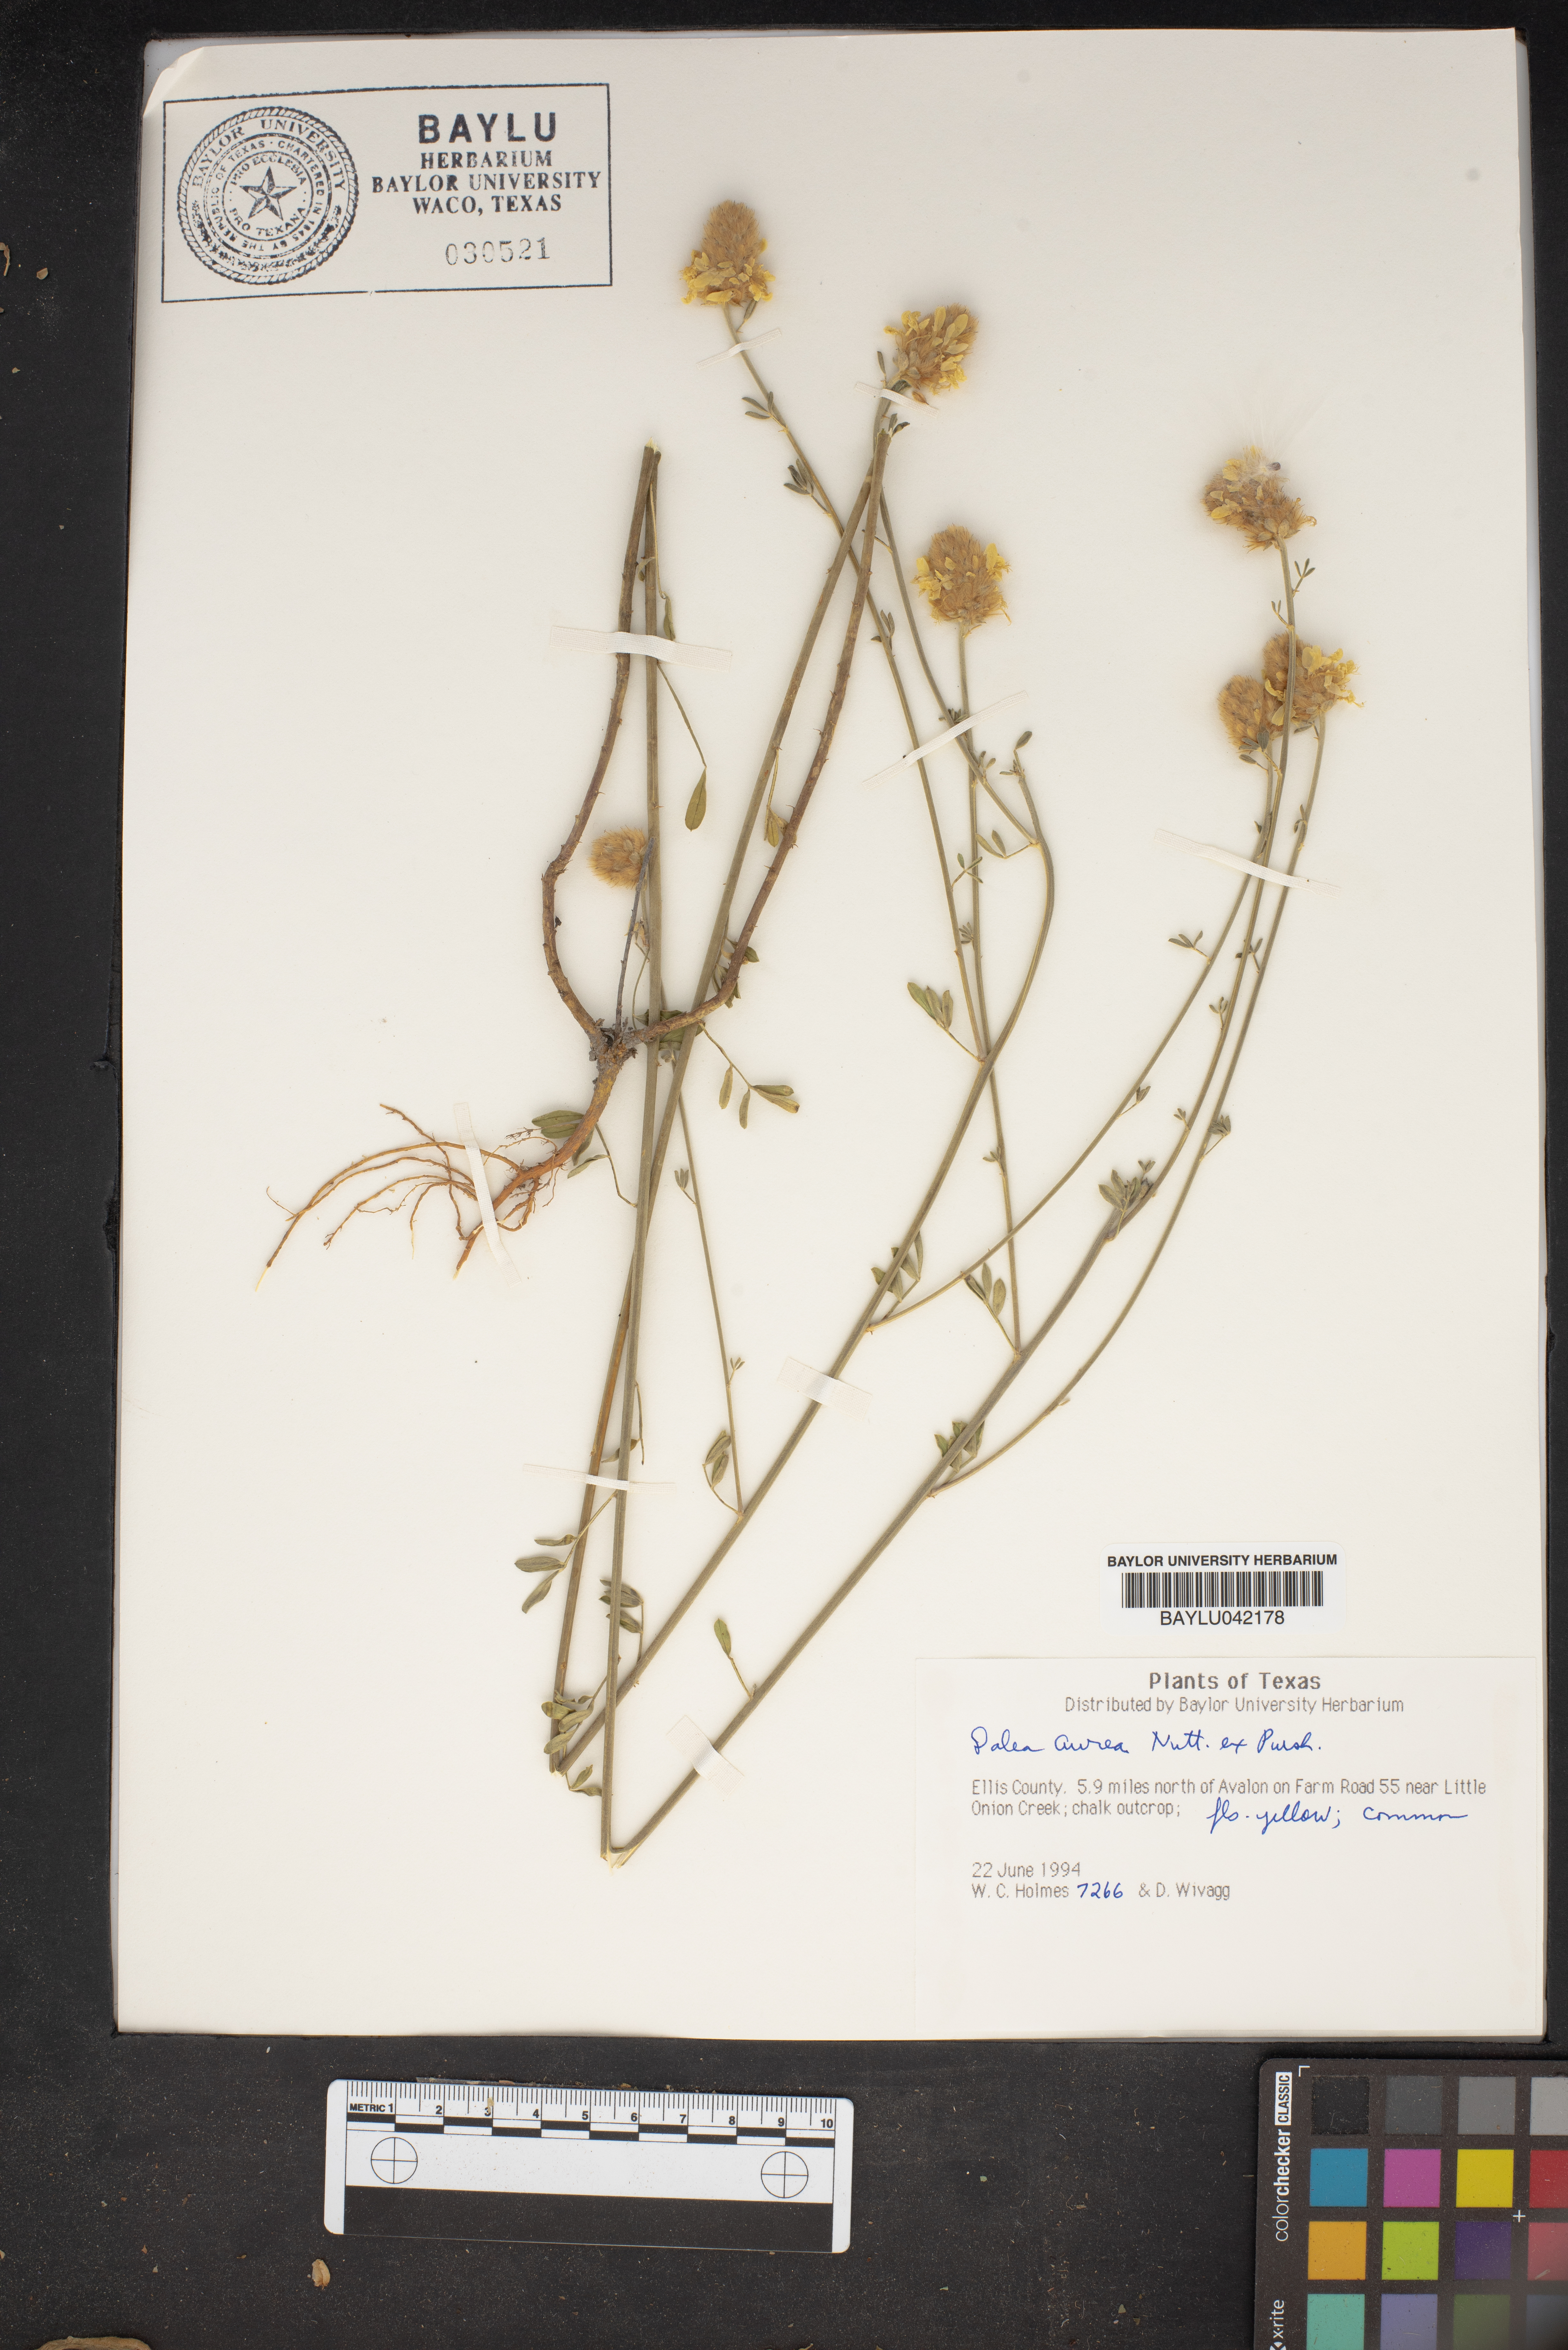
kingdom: Plantae
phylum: Tracheophyta
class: Magnoliopsida
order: Fabales
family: Fabaceae
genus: Dalea
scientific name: Dalea aurea
